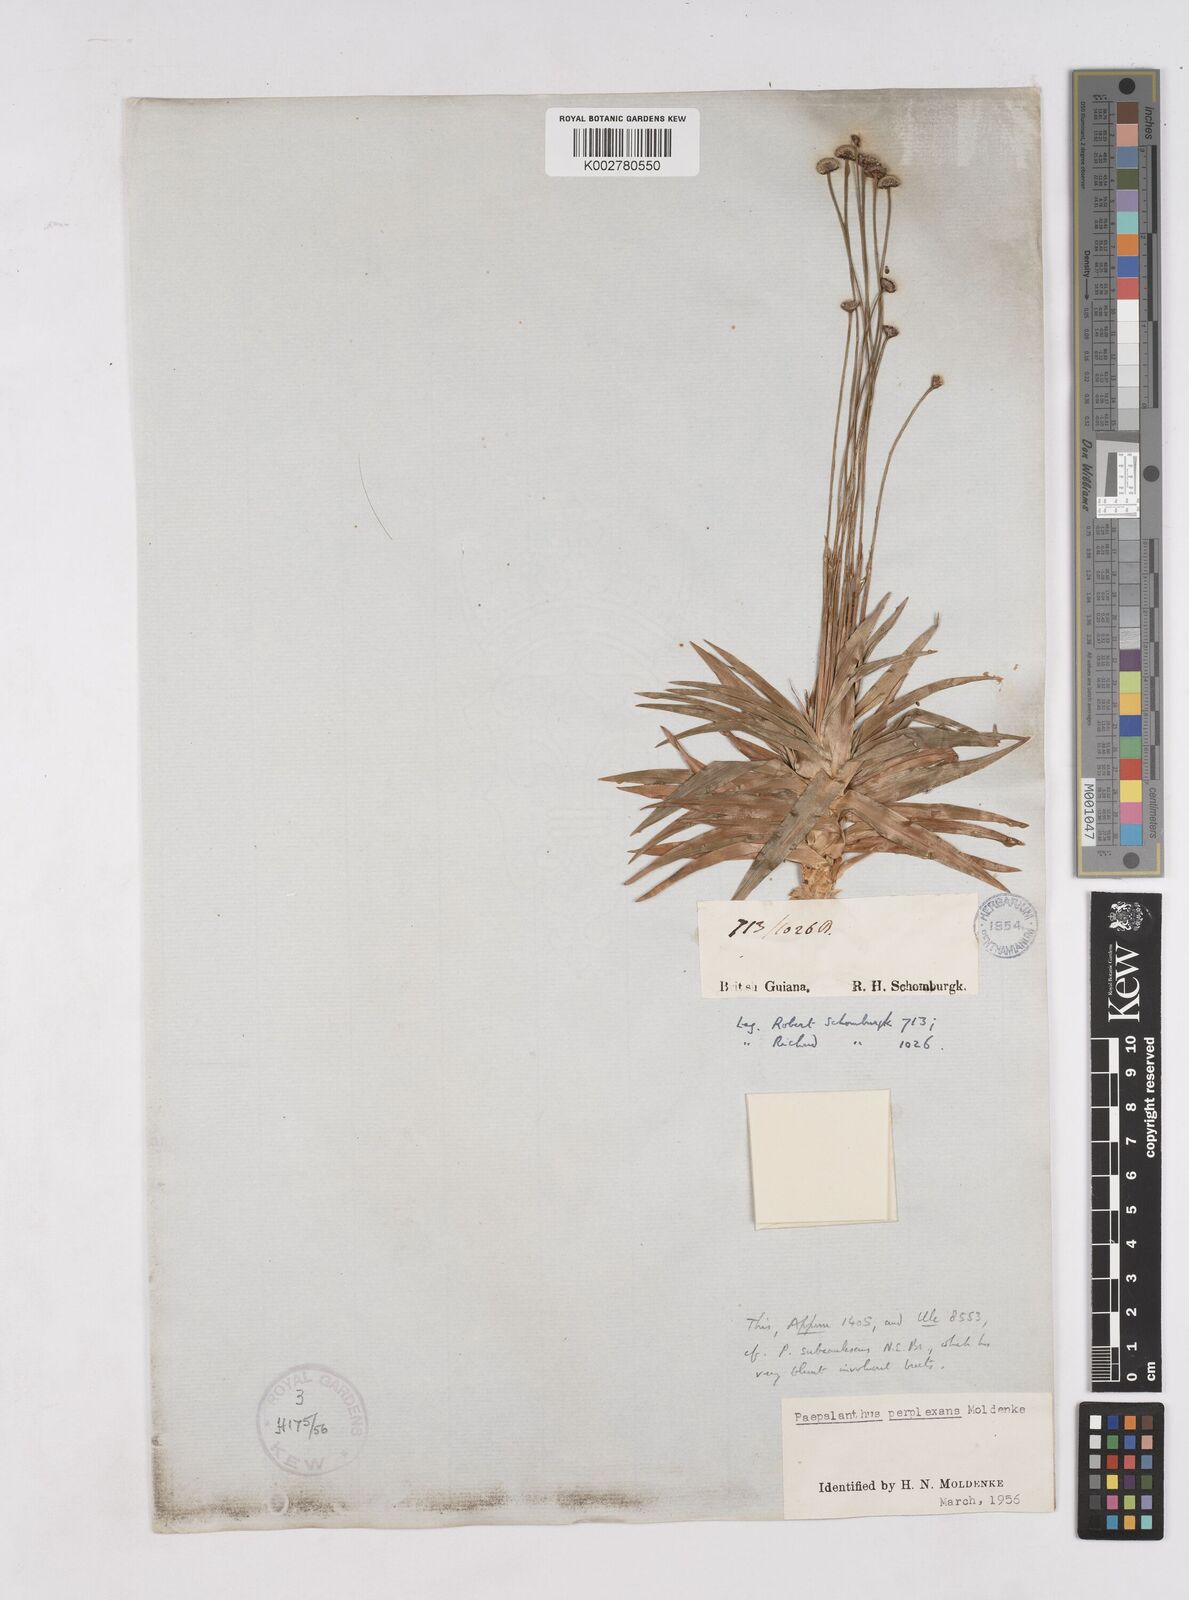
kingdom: Plantae
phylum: Tracheophyta
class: Liliopsida
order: Poales
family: Eriocaulaceae
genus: Paepalanthus
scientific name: Paepalanthus schomburgkii
